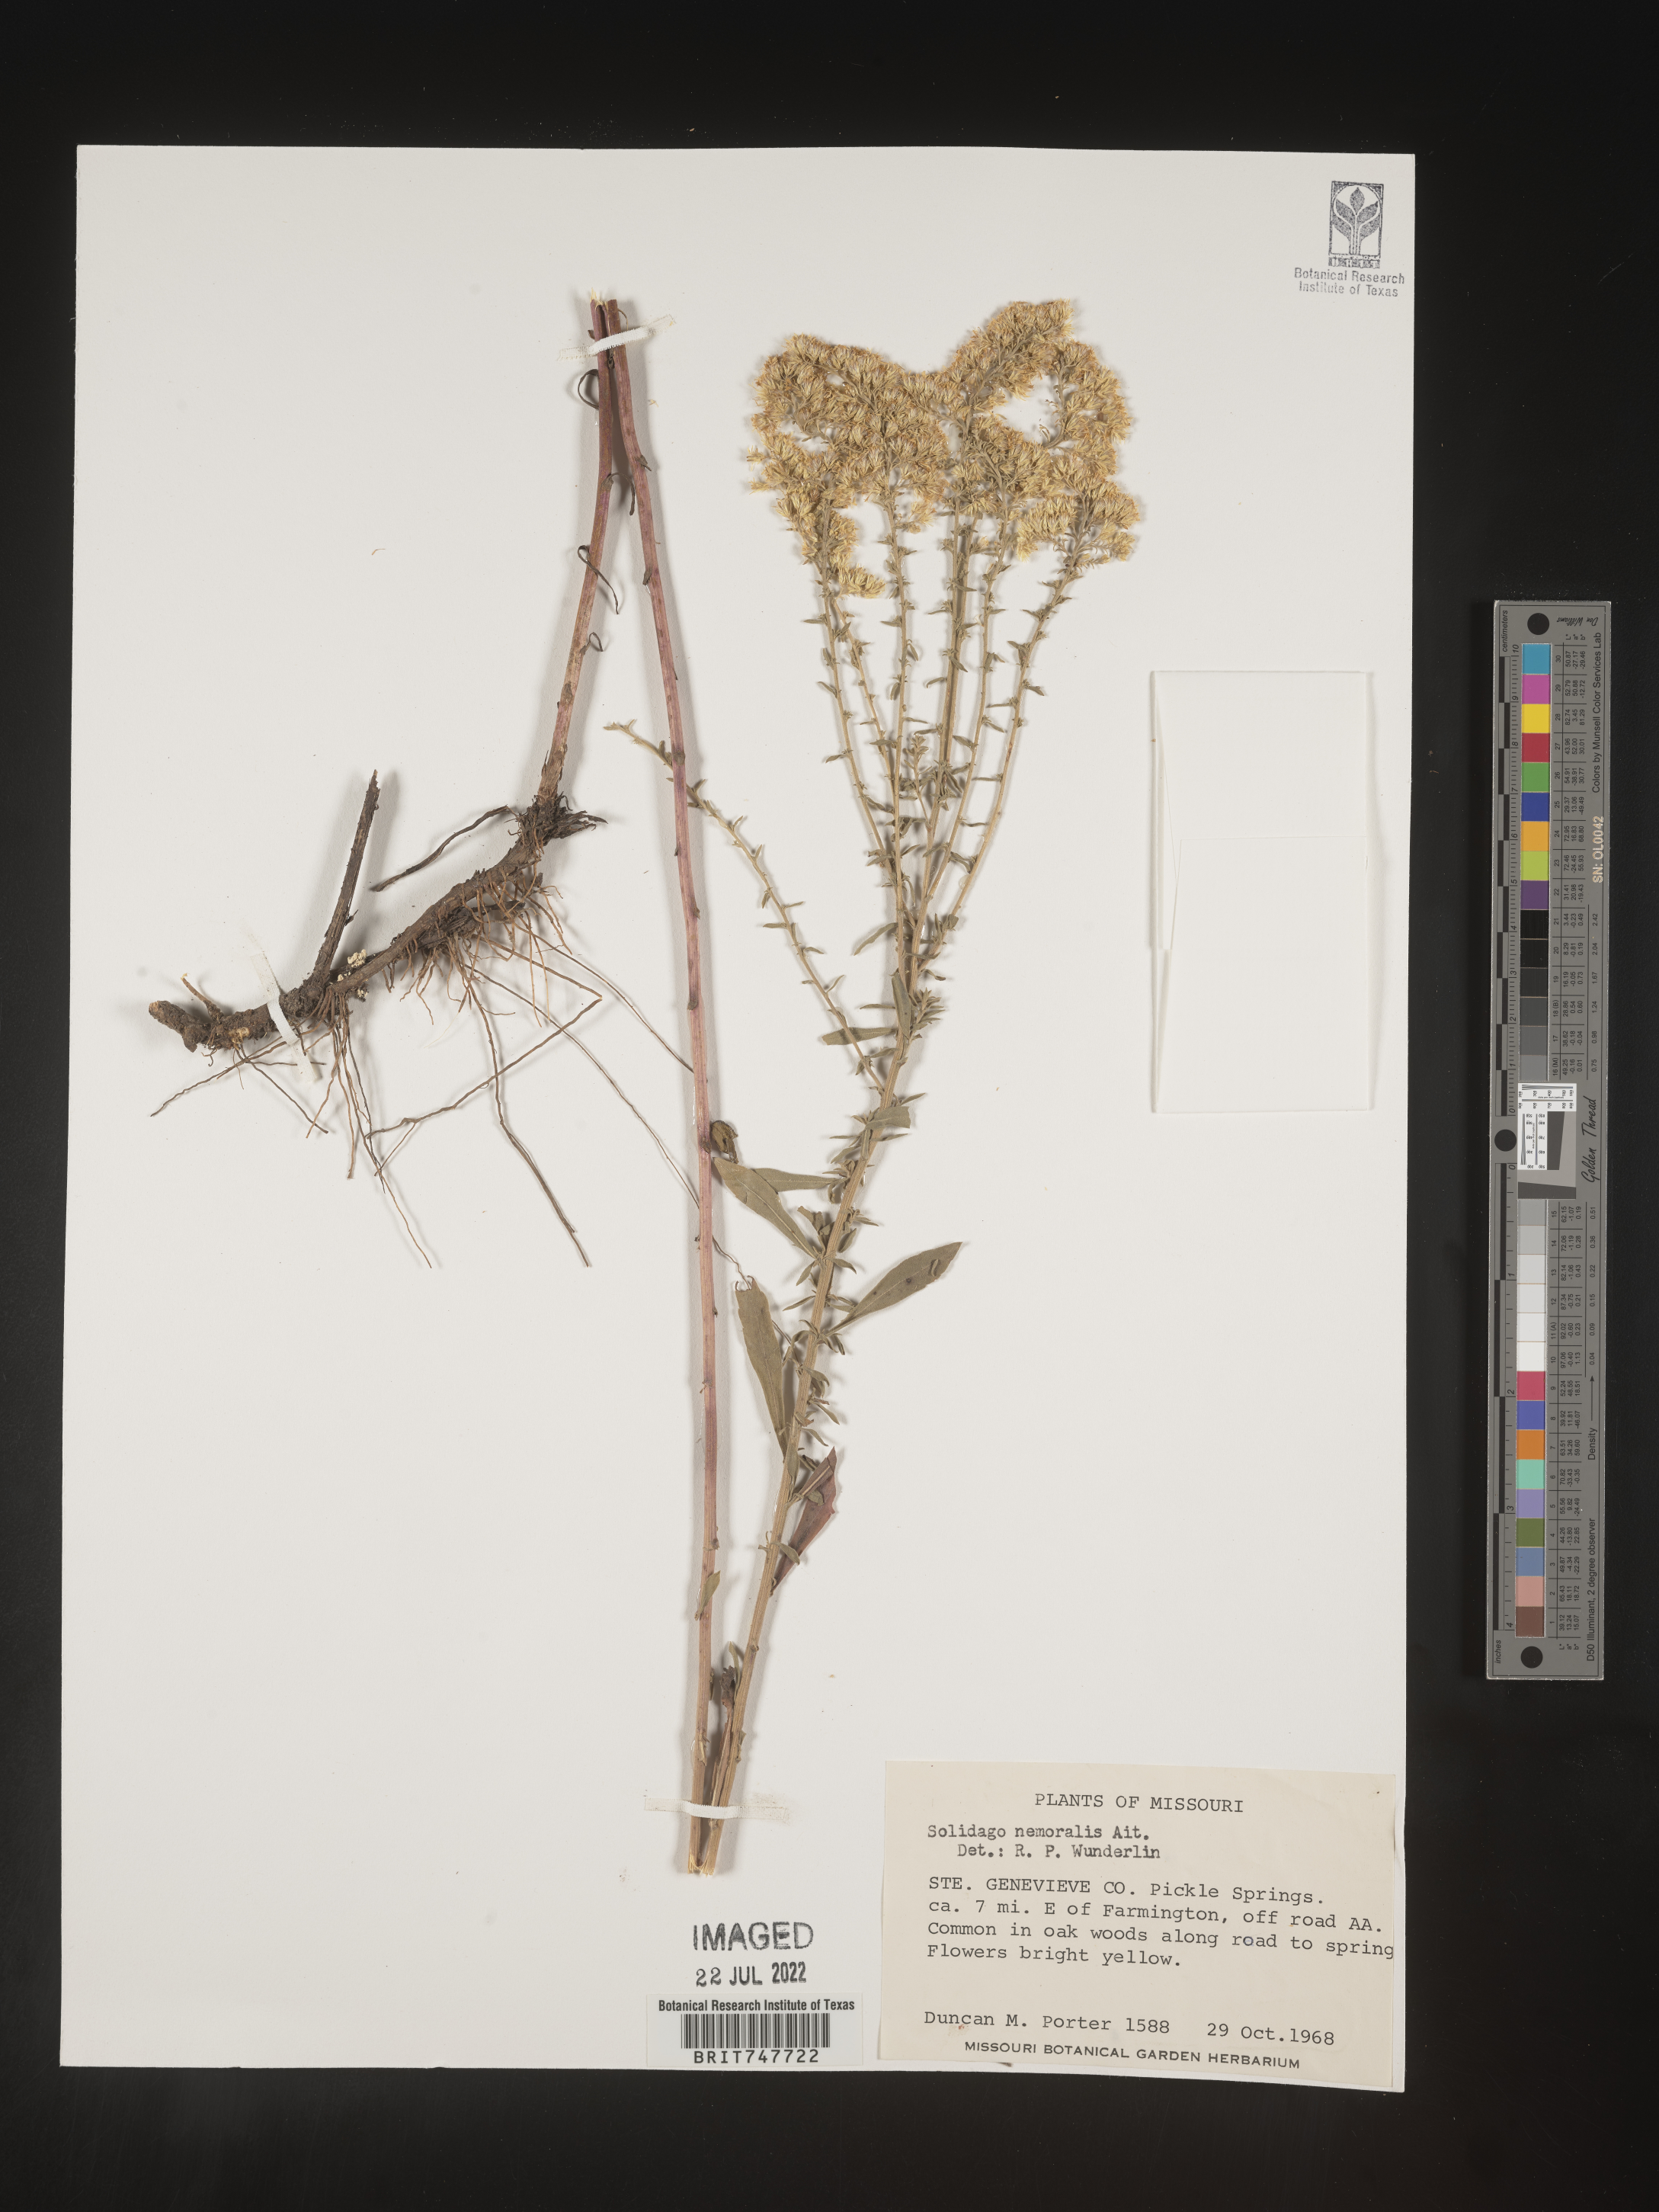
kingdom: Plantae
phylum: Tracheophyta
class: Magnoliopsida
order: Asterales
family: Asteraceae
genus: Solidago
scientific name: Solidago nemoralis
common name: Grey goldenrod
